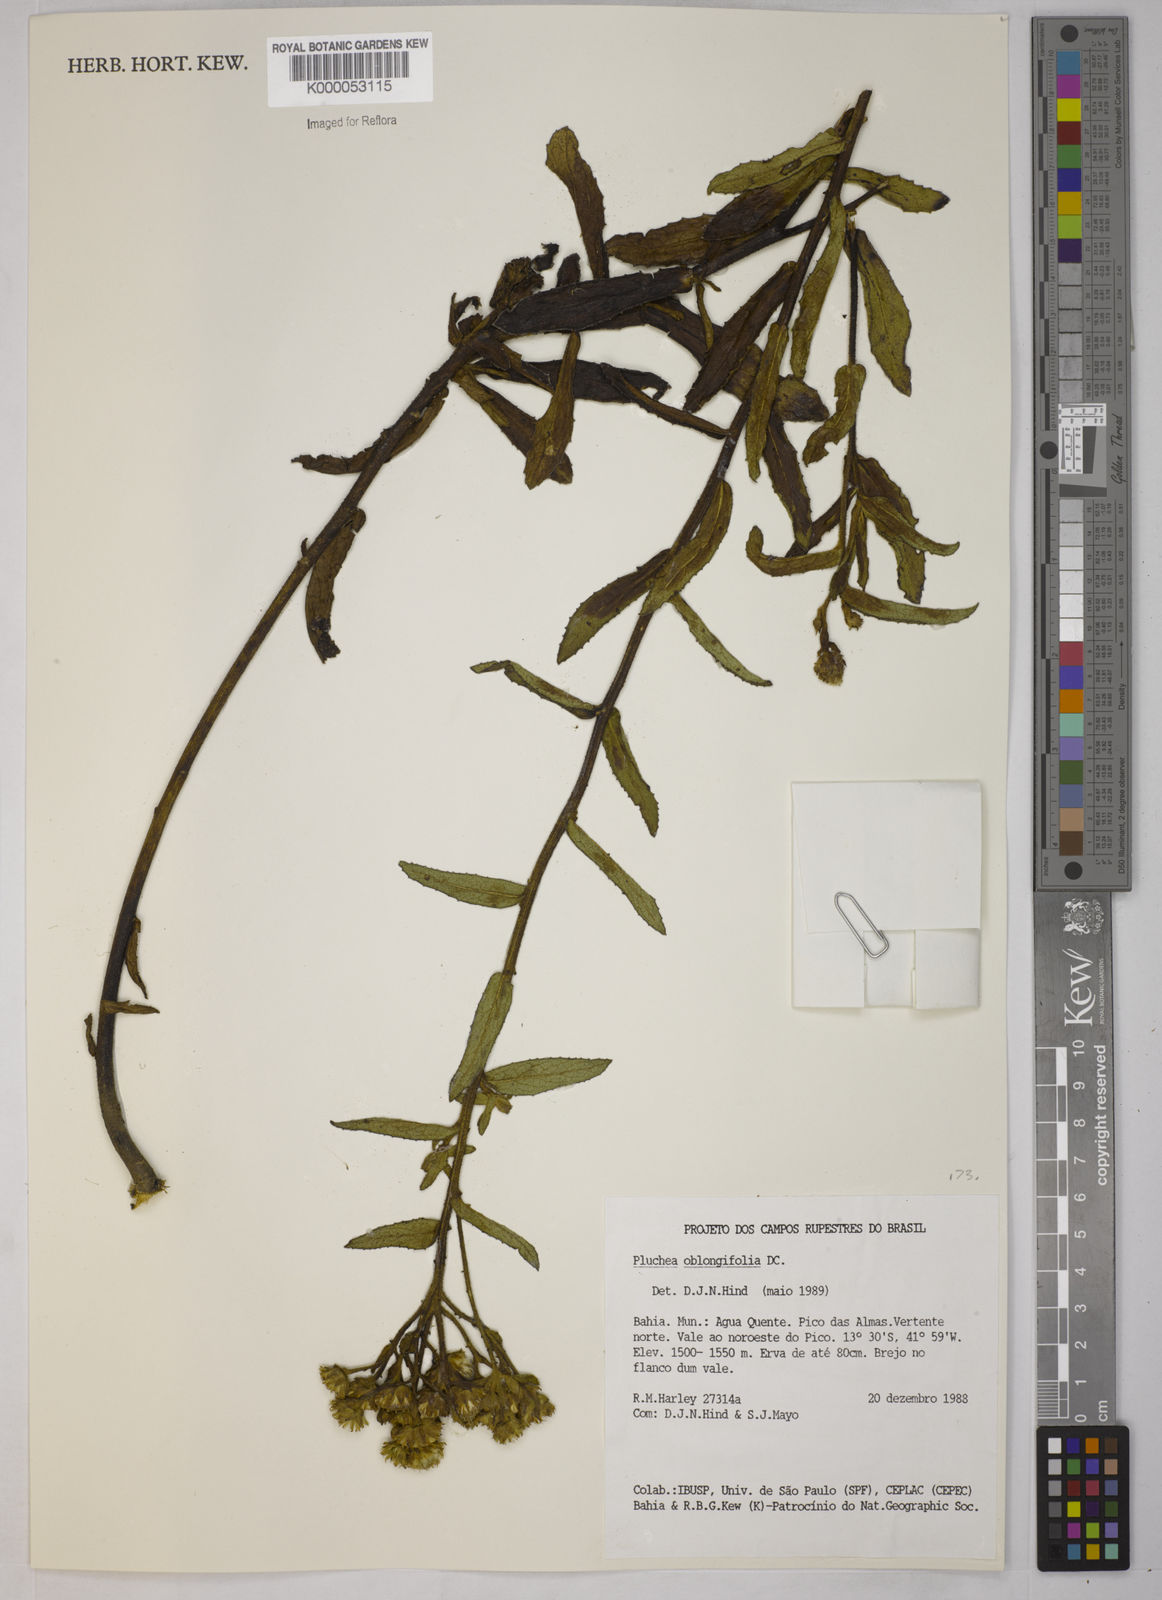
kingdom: Plantae
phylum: Tracheophyta
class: Magnoliopsida
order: Asterales
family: Asteraceae
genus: Pluchea
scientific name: Pluchea oblongifolia
